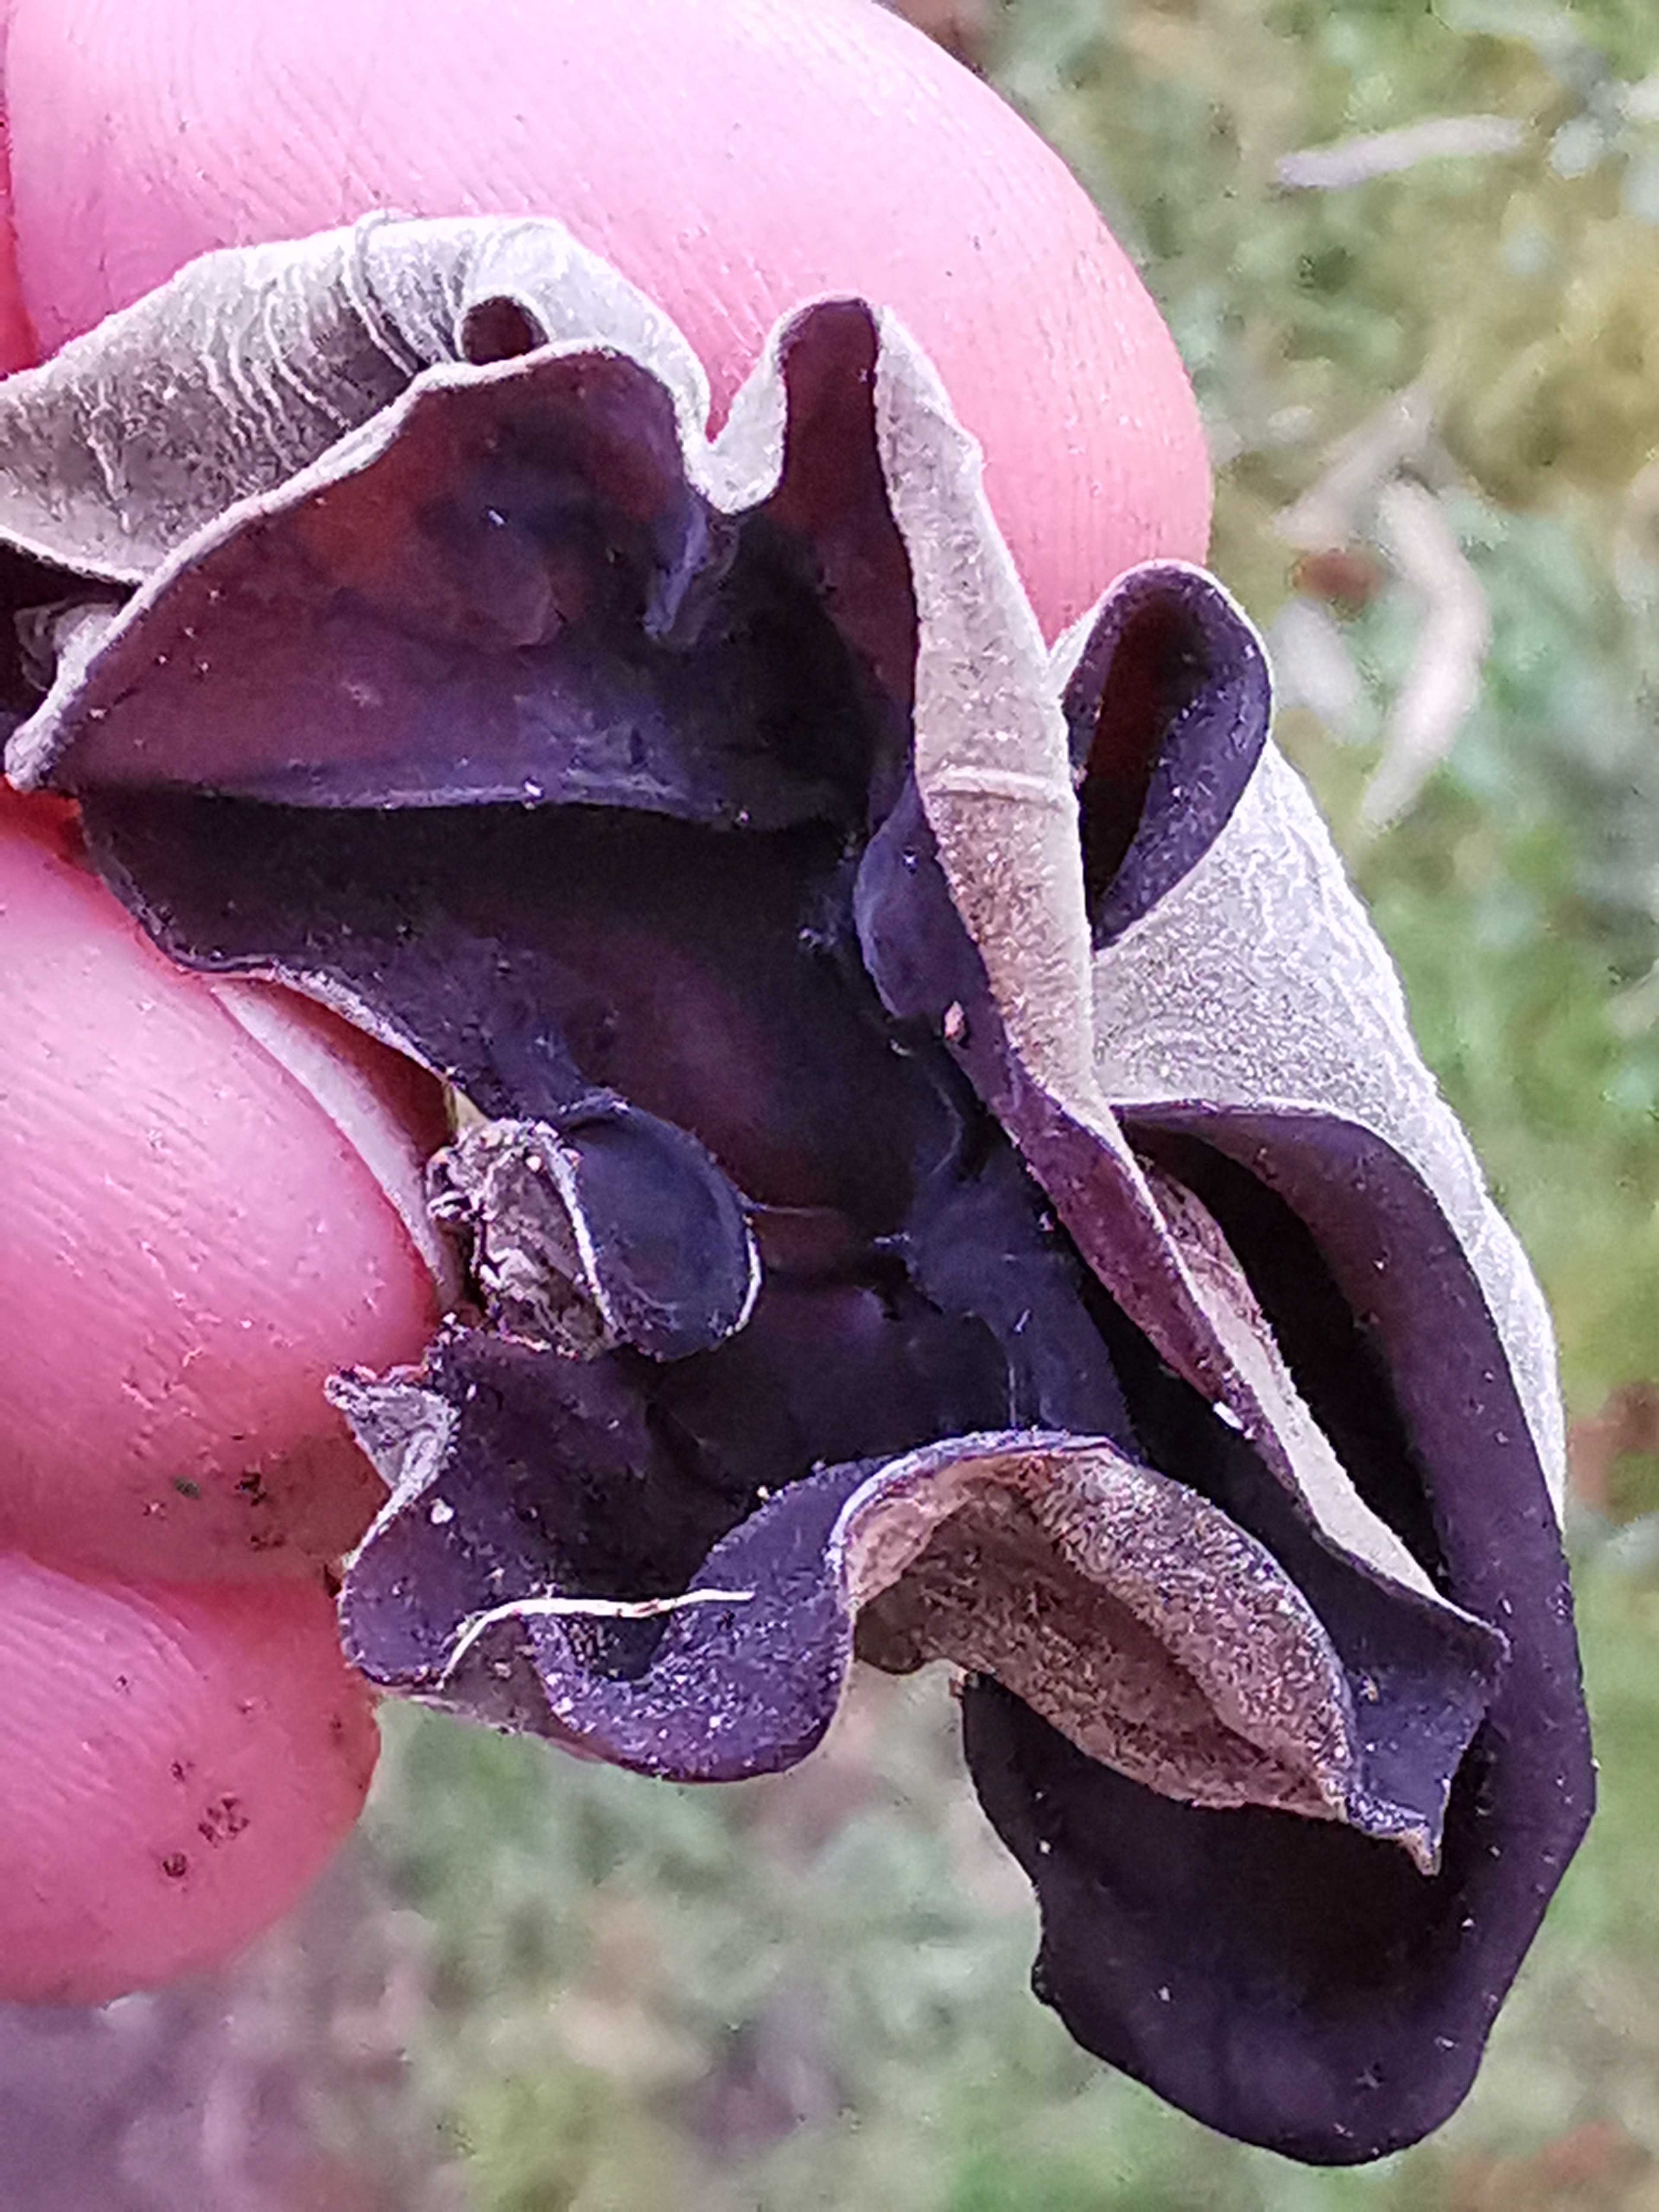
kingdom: Fungi
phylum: Basidiomycota
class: Agaricomycetes
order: Auriculariales
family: Auriculariaceae
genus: Auricularia
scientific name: Auricularia auricula-judae
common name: almindelig judasøre
